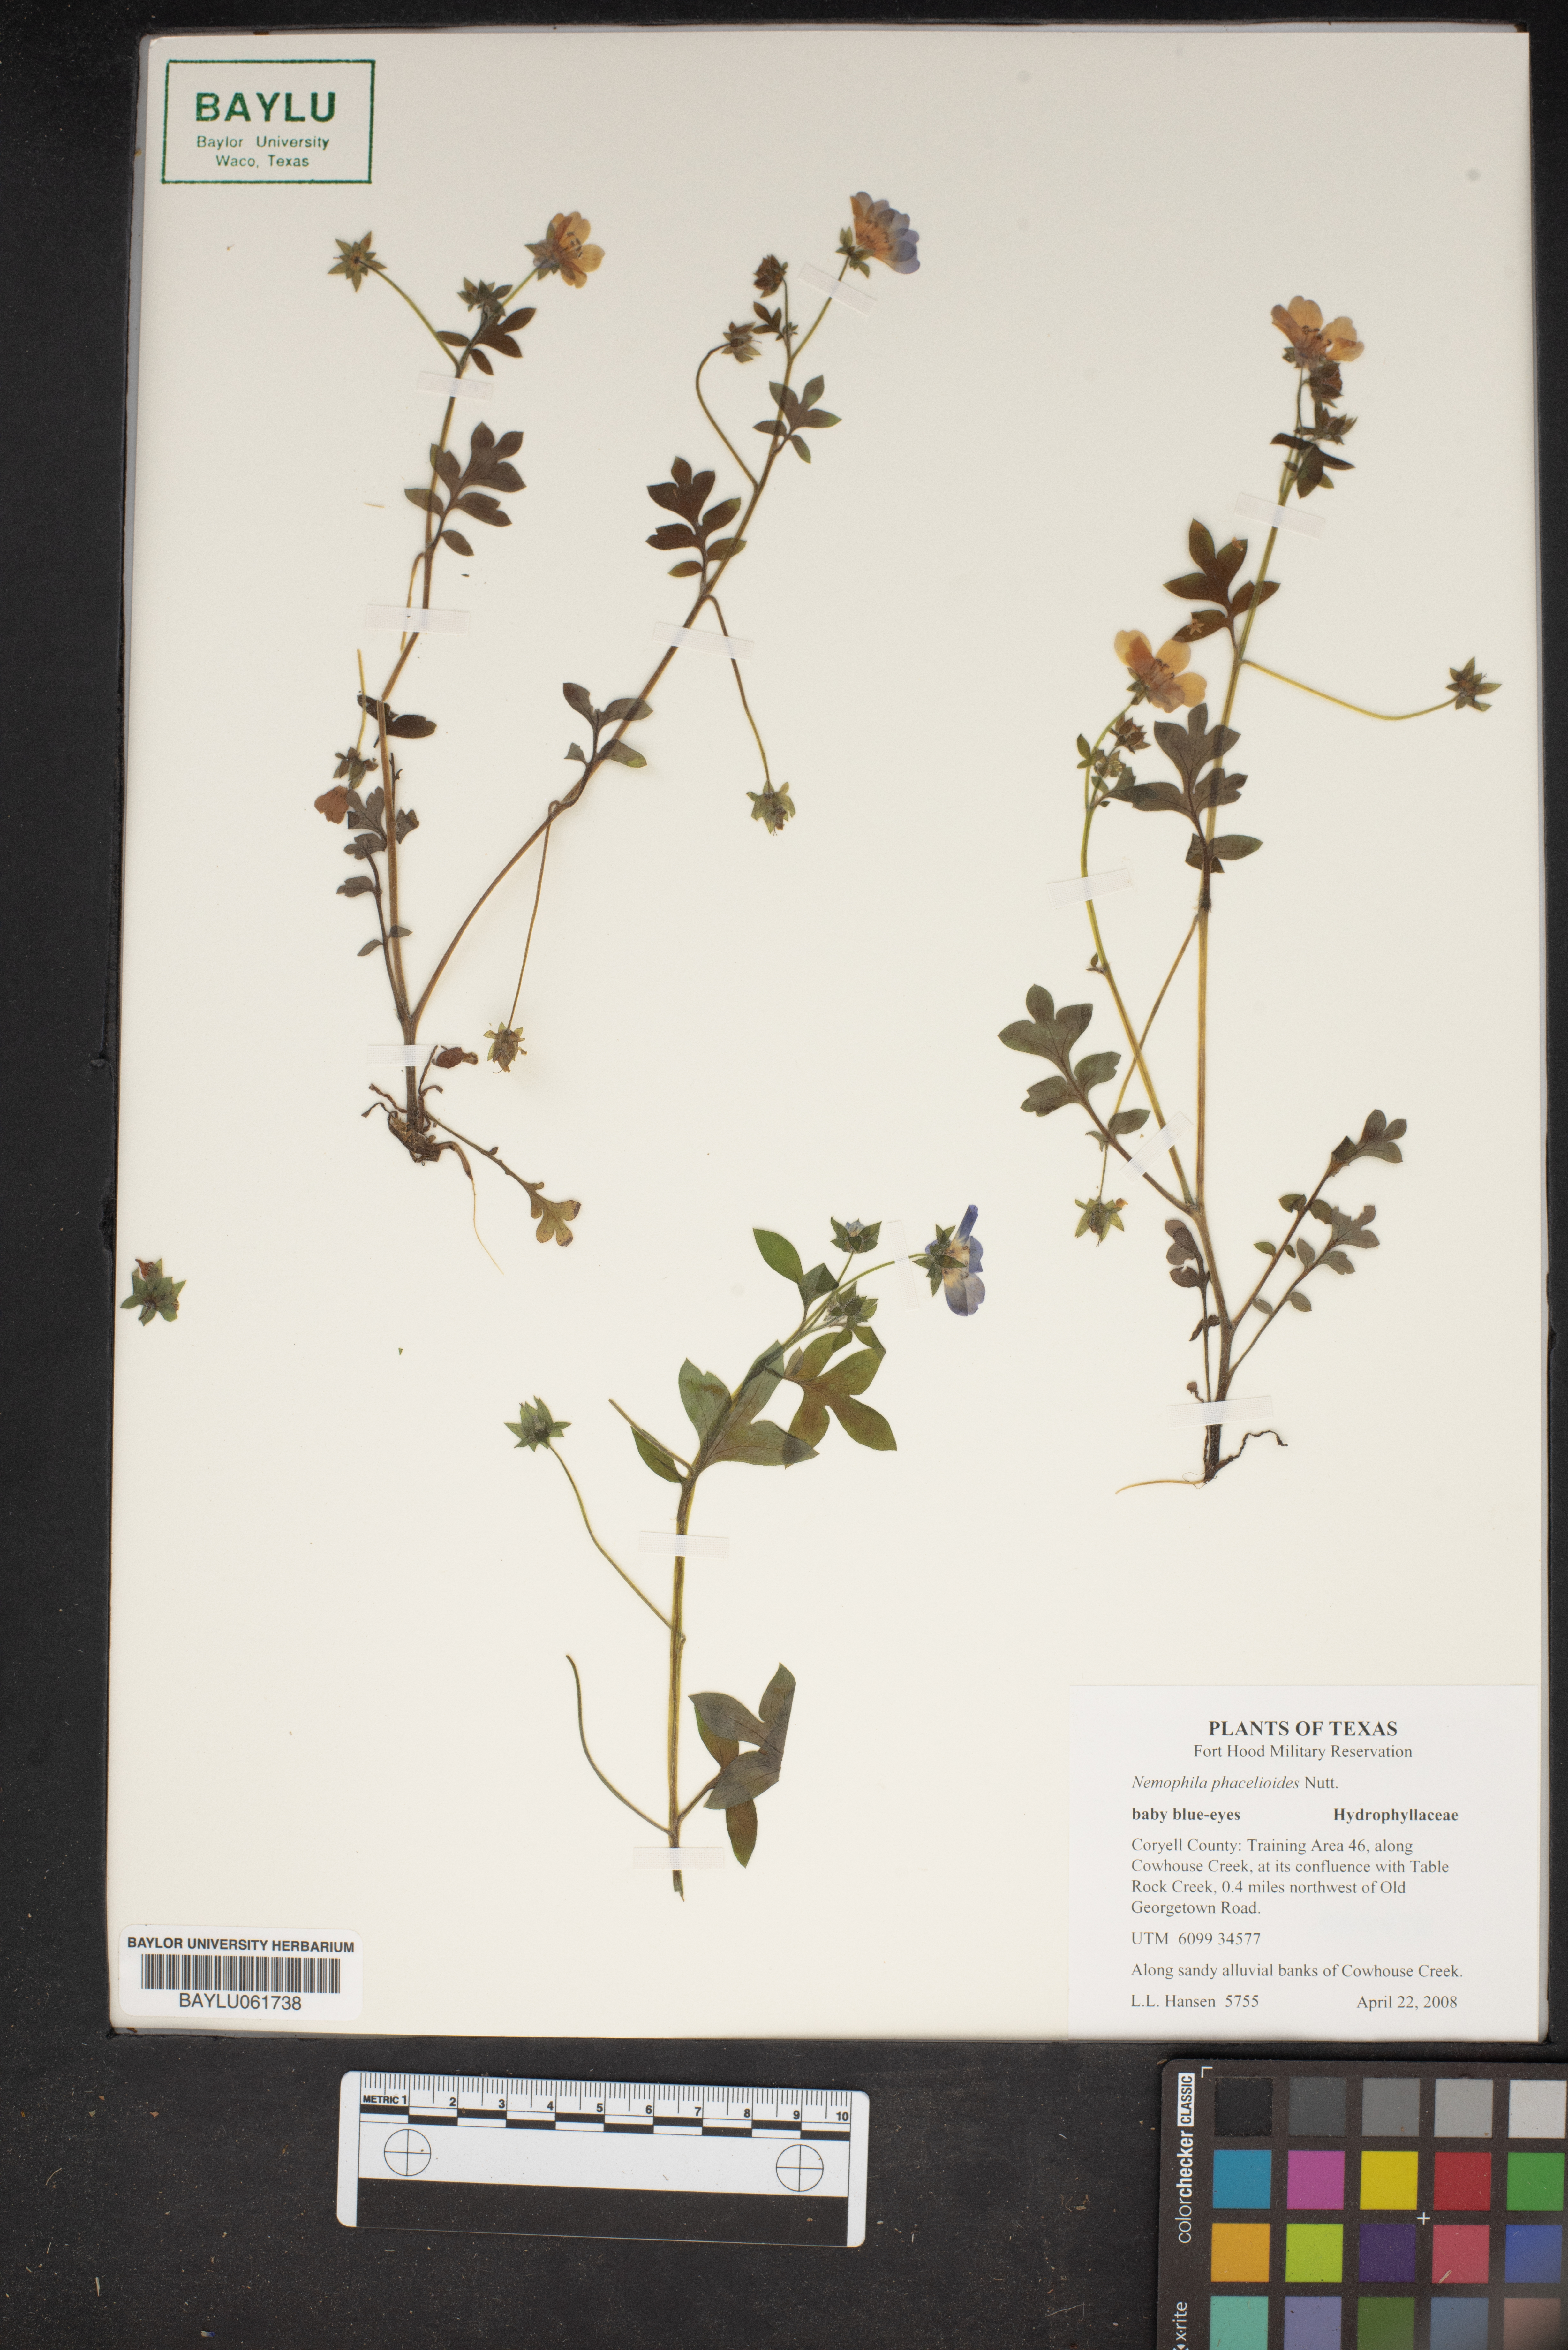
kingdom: Plantae
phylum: Tracheophyta
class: Magnoliopsida
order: Boraginales
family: Hydrophyllaceae
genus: Nemophila
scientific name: Nemophila phacelioides
